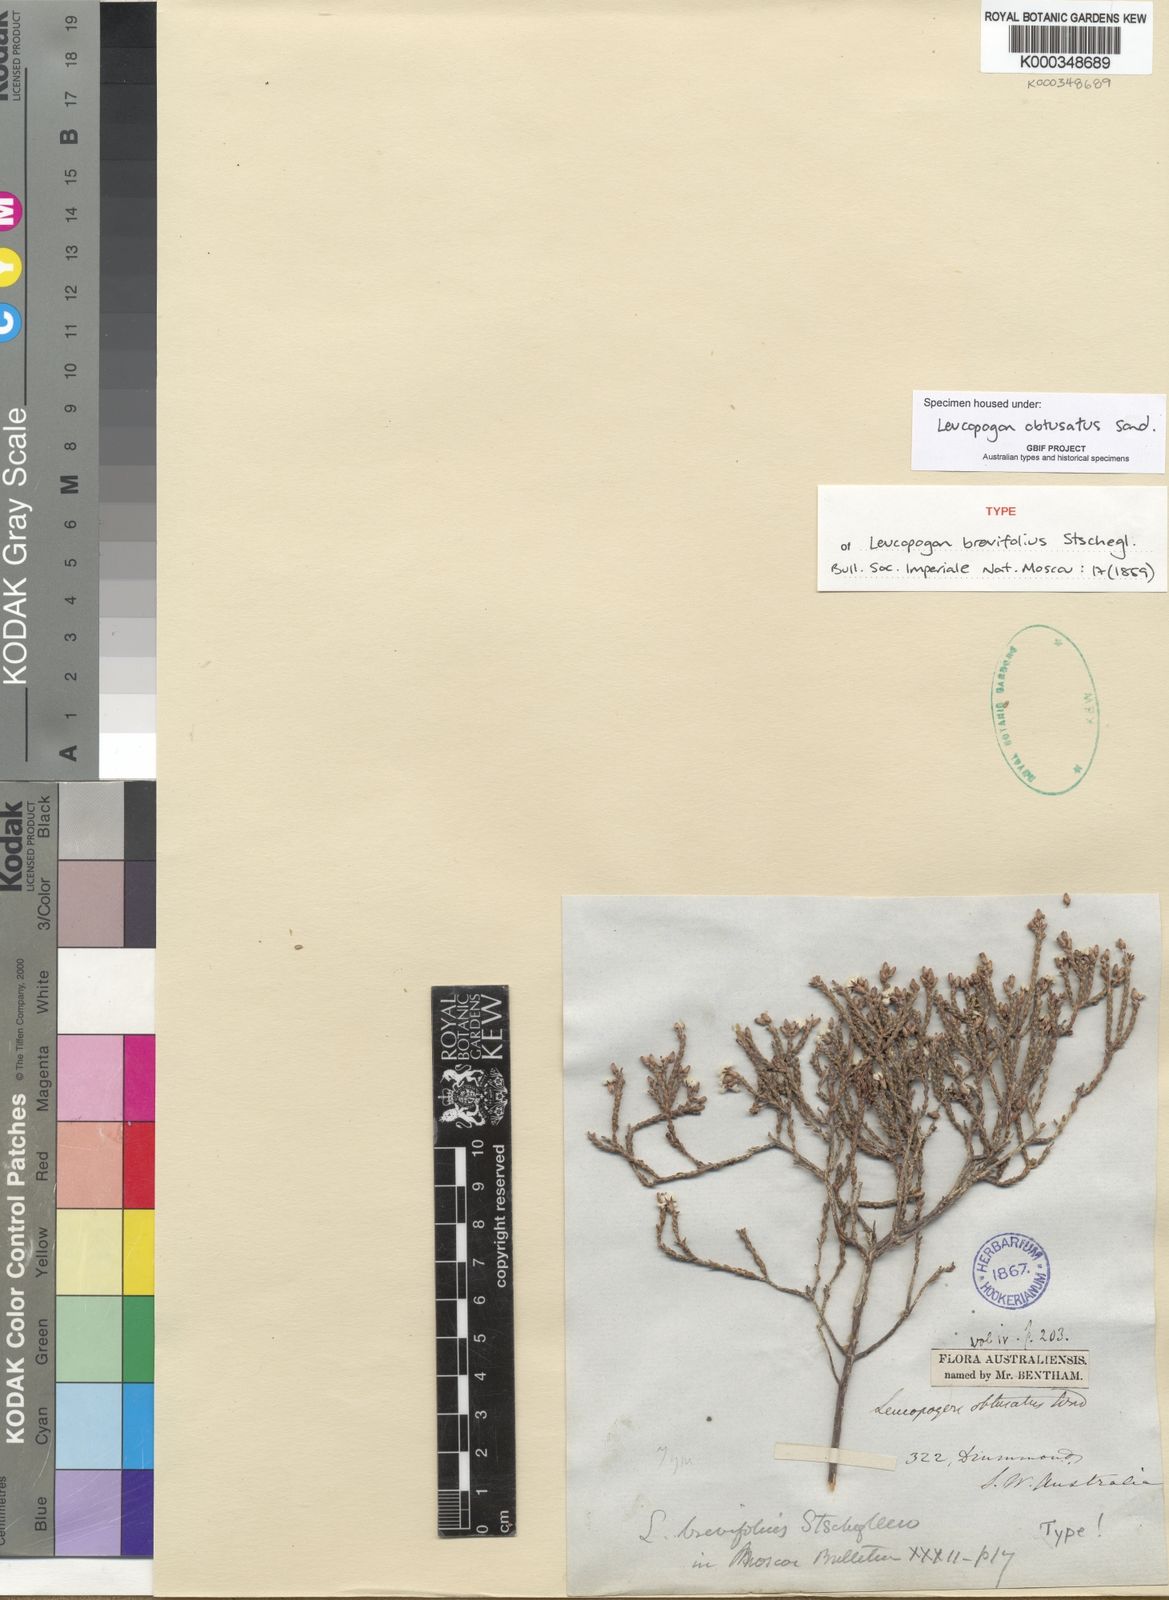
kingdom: Plantae
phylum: Tracheophyta
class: Magnoliopsida
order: Ericales
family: Ericaceae
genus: Leucopogon
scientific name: Leucopogon obtusatus
